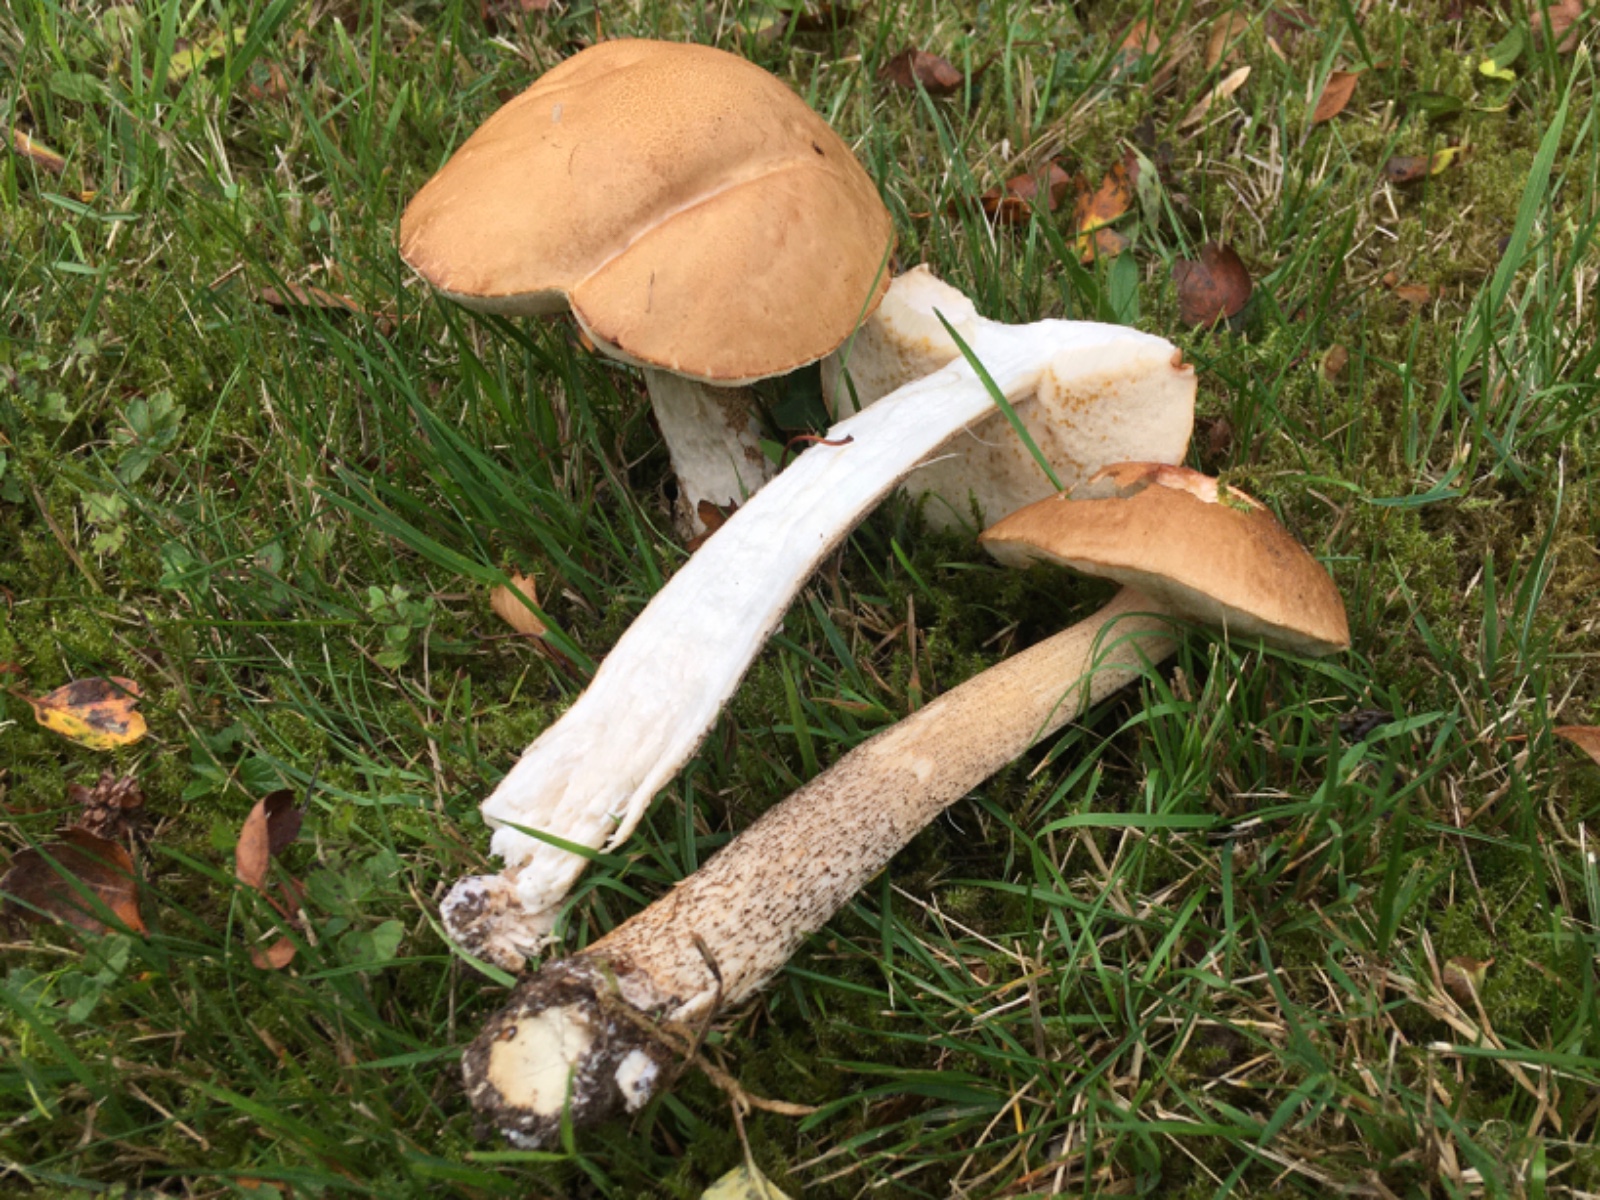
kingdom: Fungi
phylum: Basidiomycota
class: Agaricomycetes
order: Boletales
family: Boletaceae
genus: Leccinum
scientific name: Leccinum scabrum
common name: brun skælrørhat
